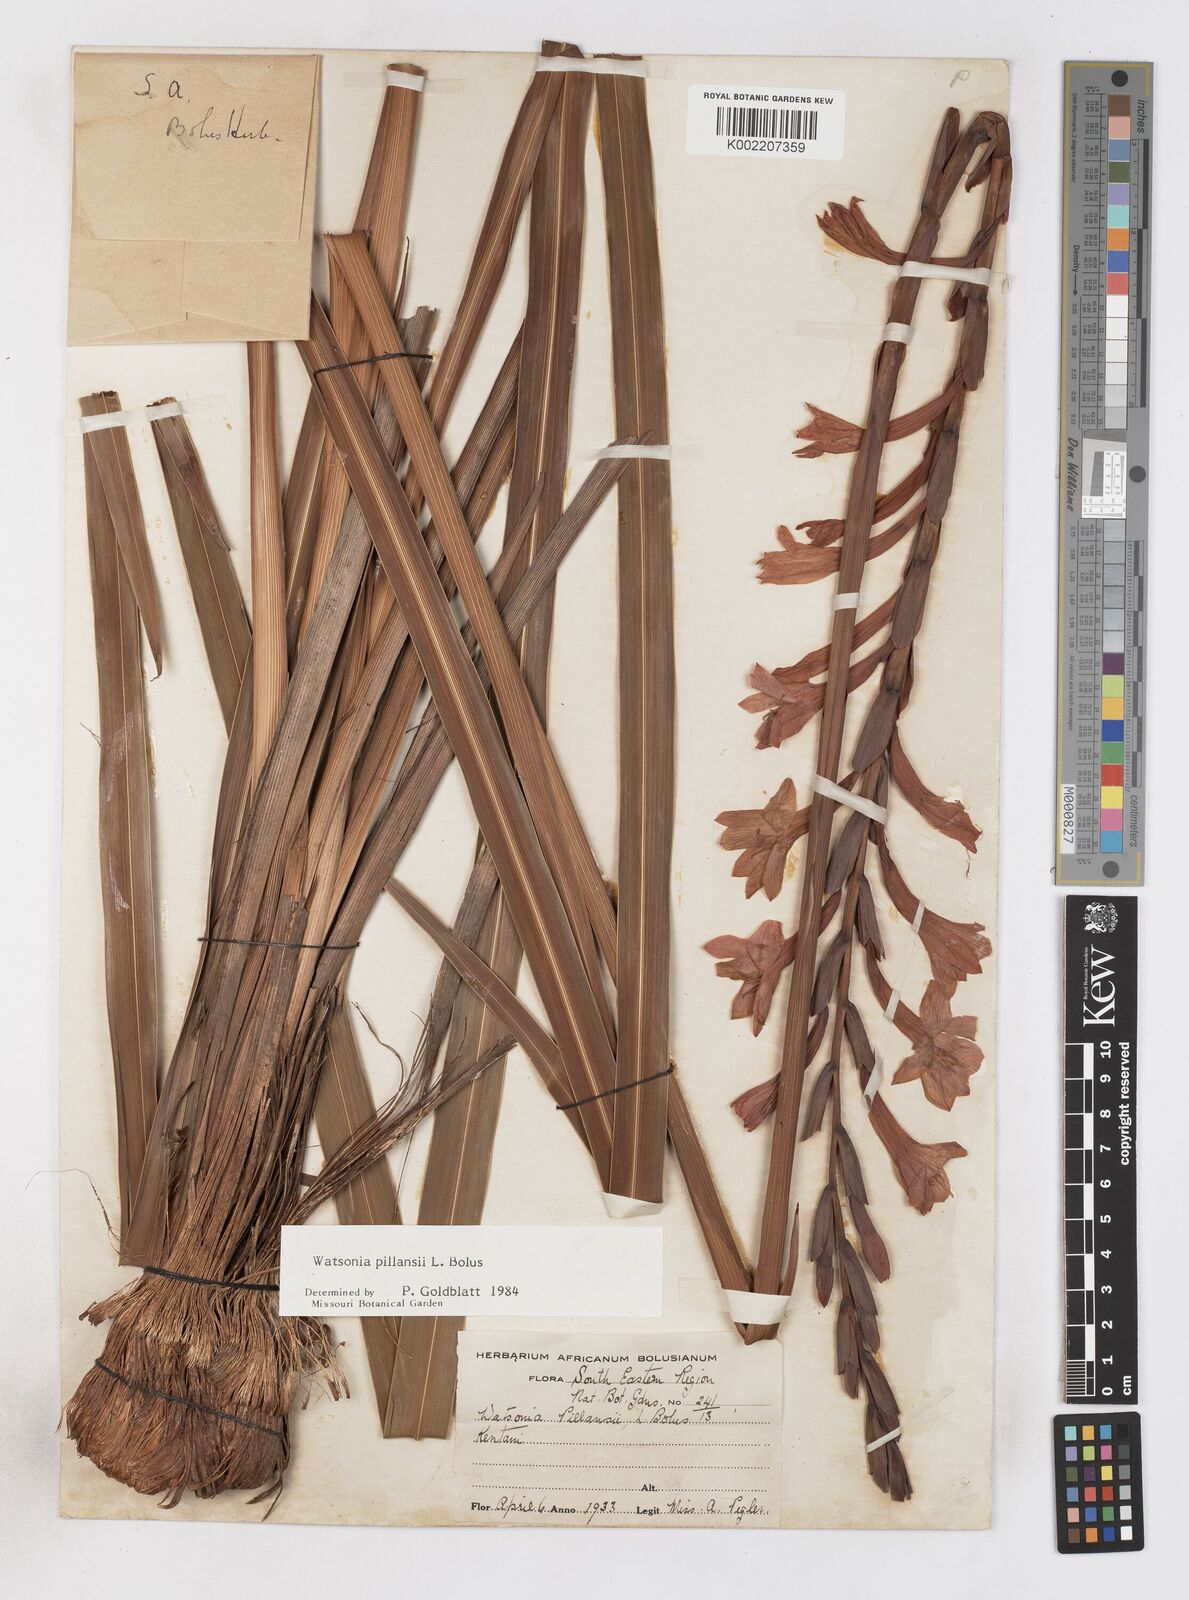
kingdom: Plantae
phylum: Tracheophyta
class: Liliopsida
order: Asparagales
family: Iridaceae
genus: Watsonia
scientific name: Watsonia pillansii
